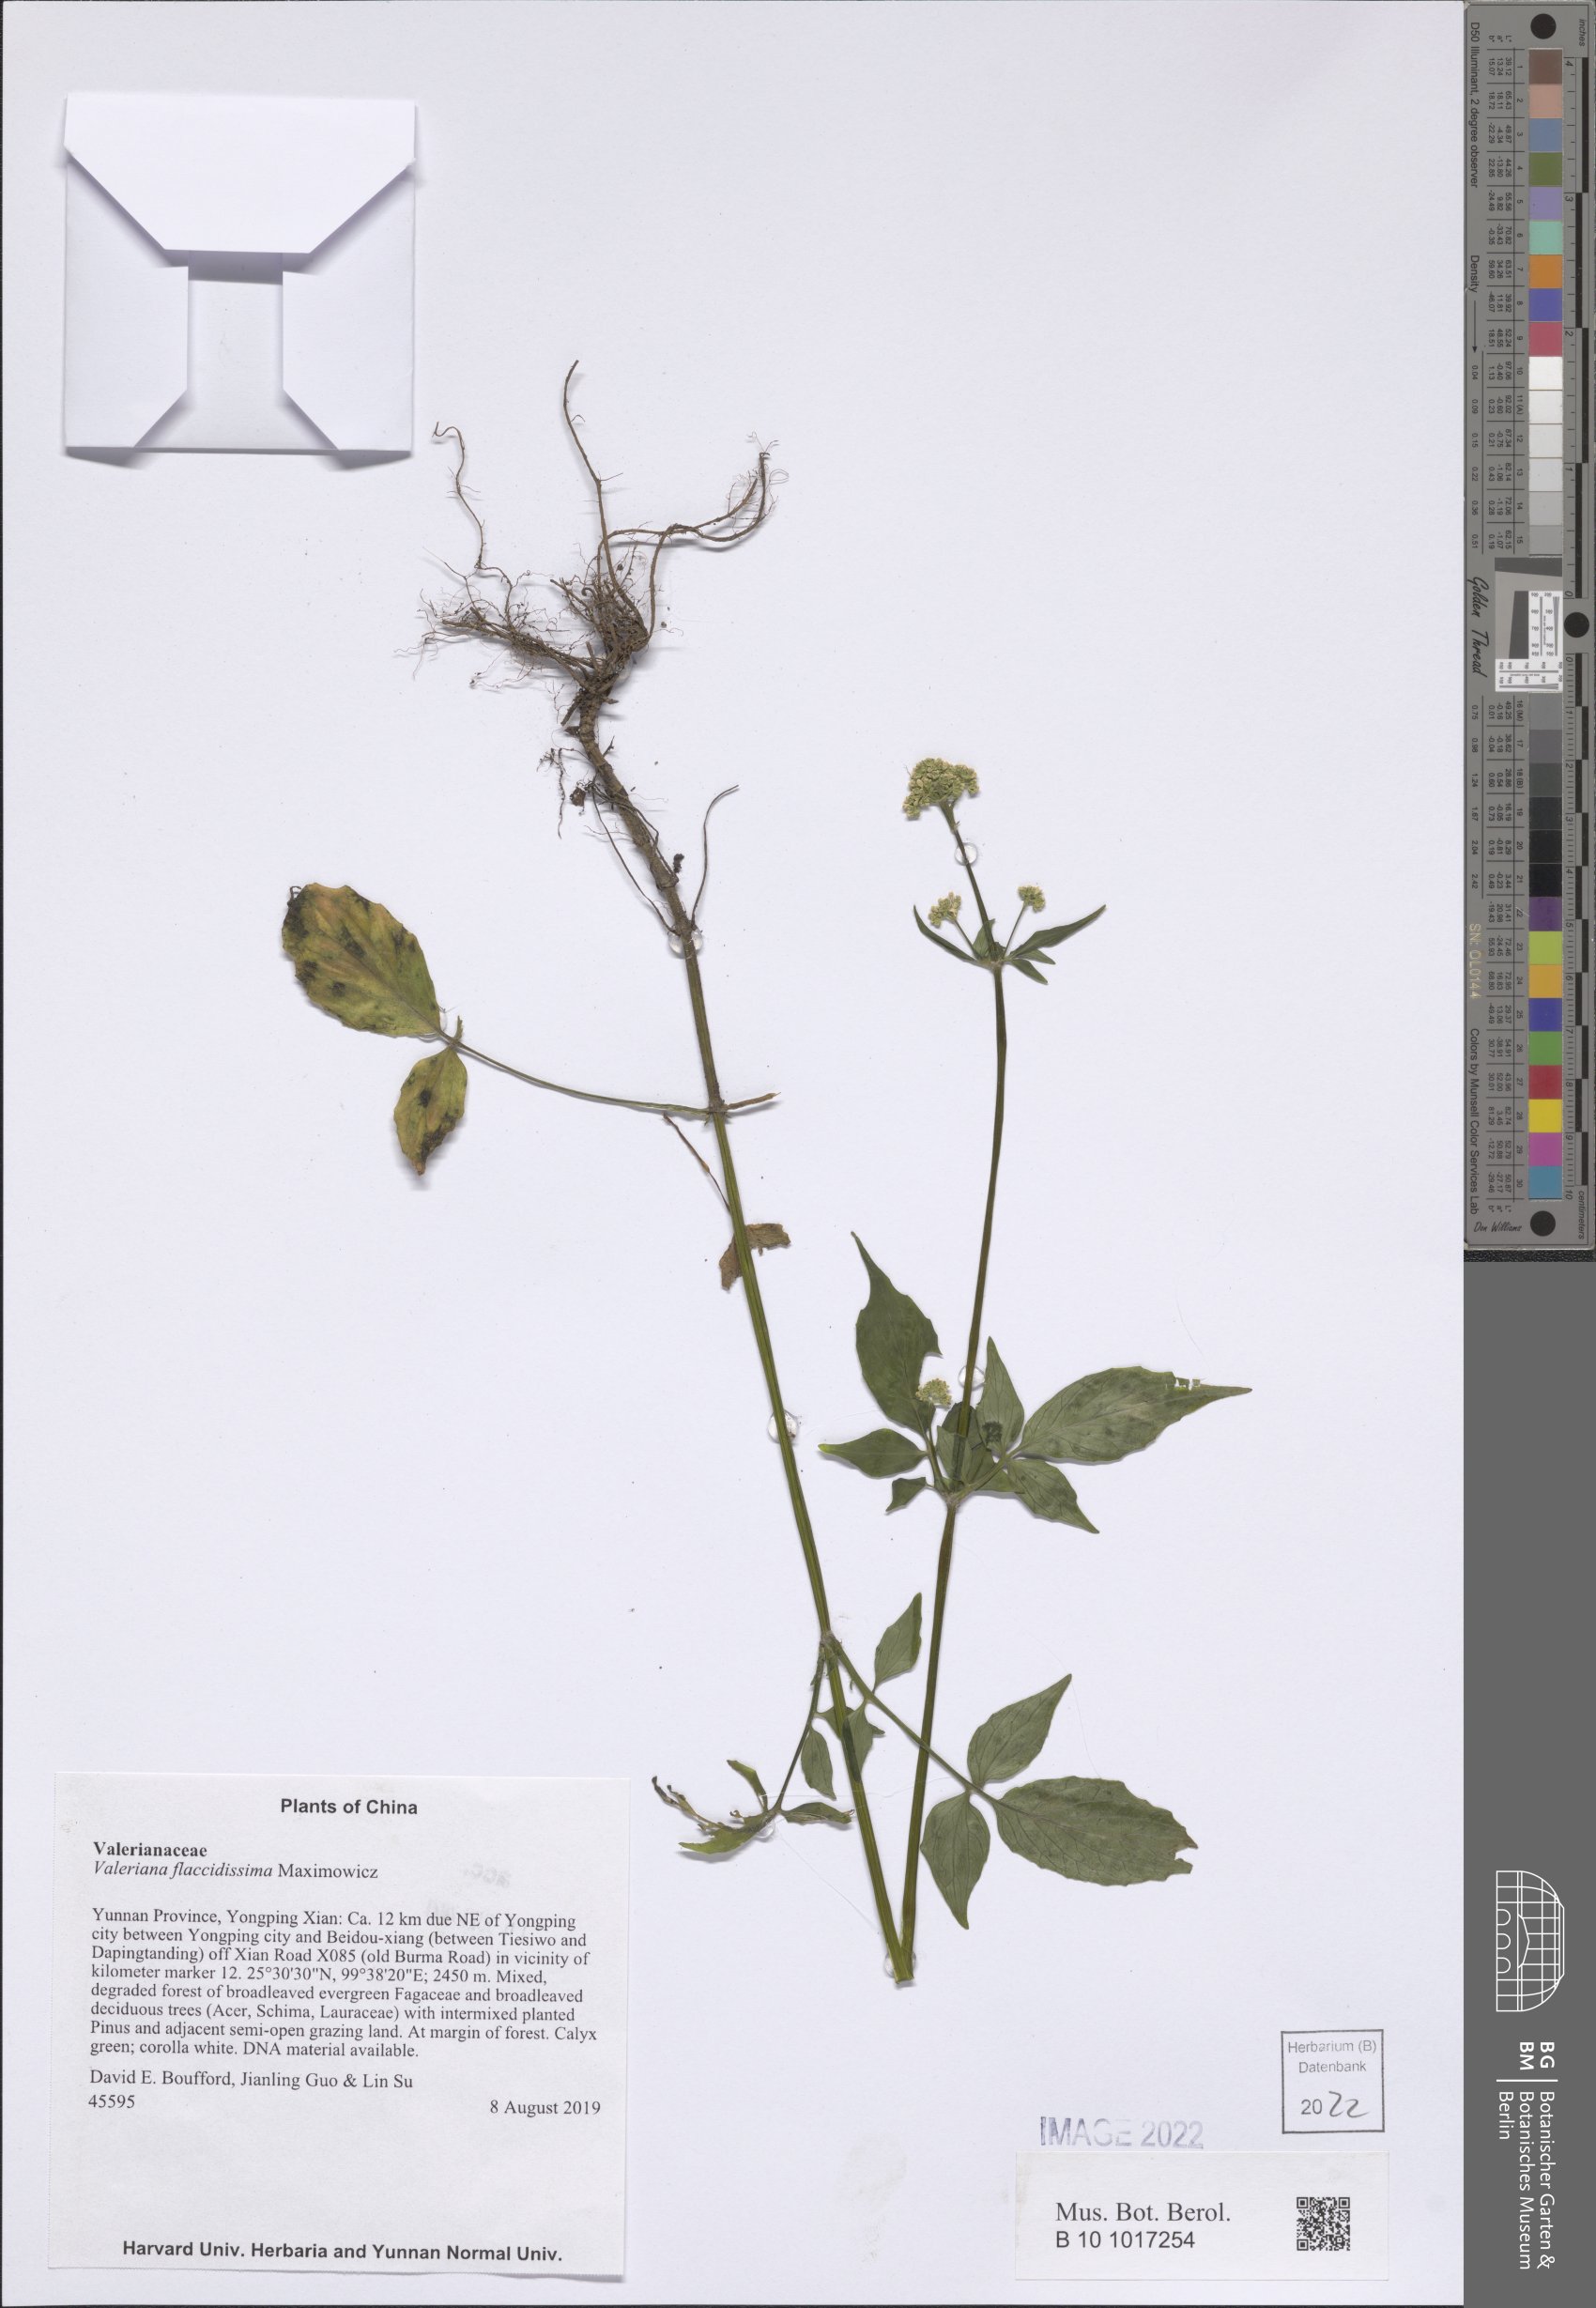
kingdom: Plantae
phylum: Tracheophyta
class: Magnoliopsida
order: Dipsacales
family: Caprifoliaceae
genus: Valeriana
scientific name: Valeriana flaccidissima
